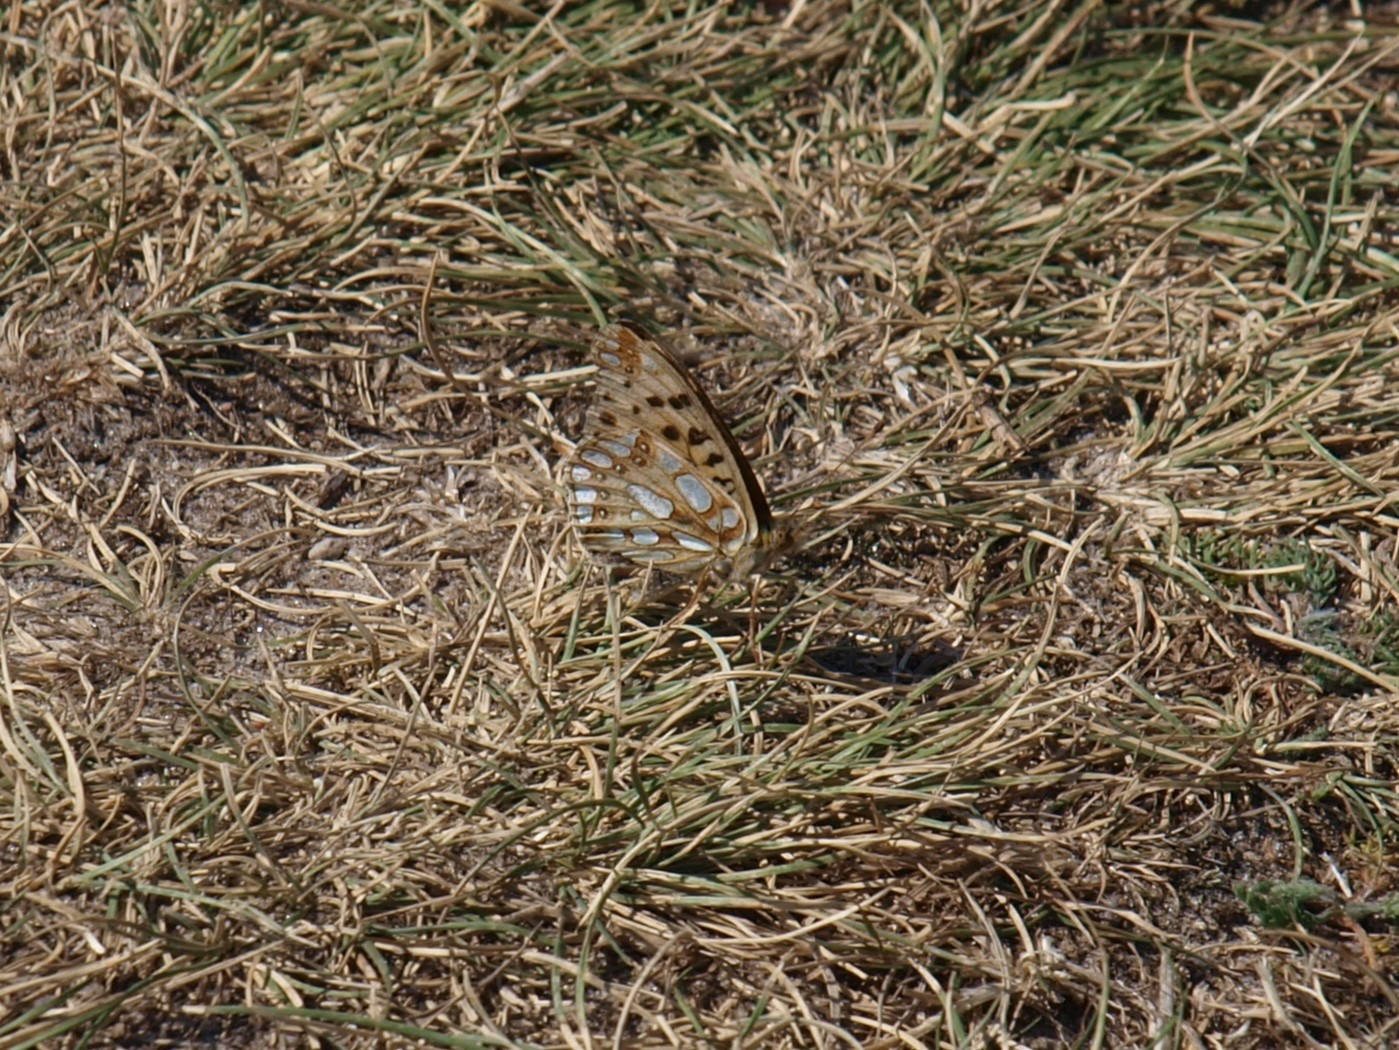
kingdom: Animalia
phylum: Arthropoda
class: Insecta
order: Lepidoptera
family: Nymphalidae
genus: Issoria
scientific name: Issoria lathonia
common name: Storplettet perlemorsommerfugl
